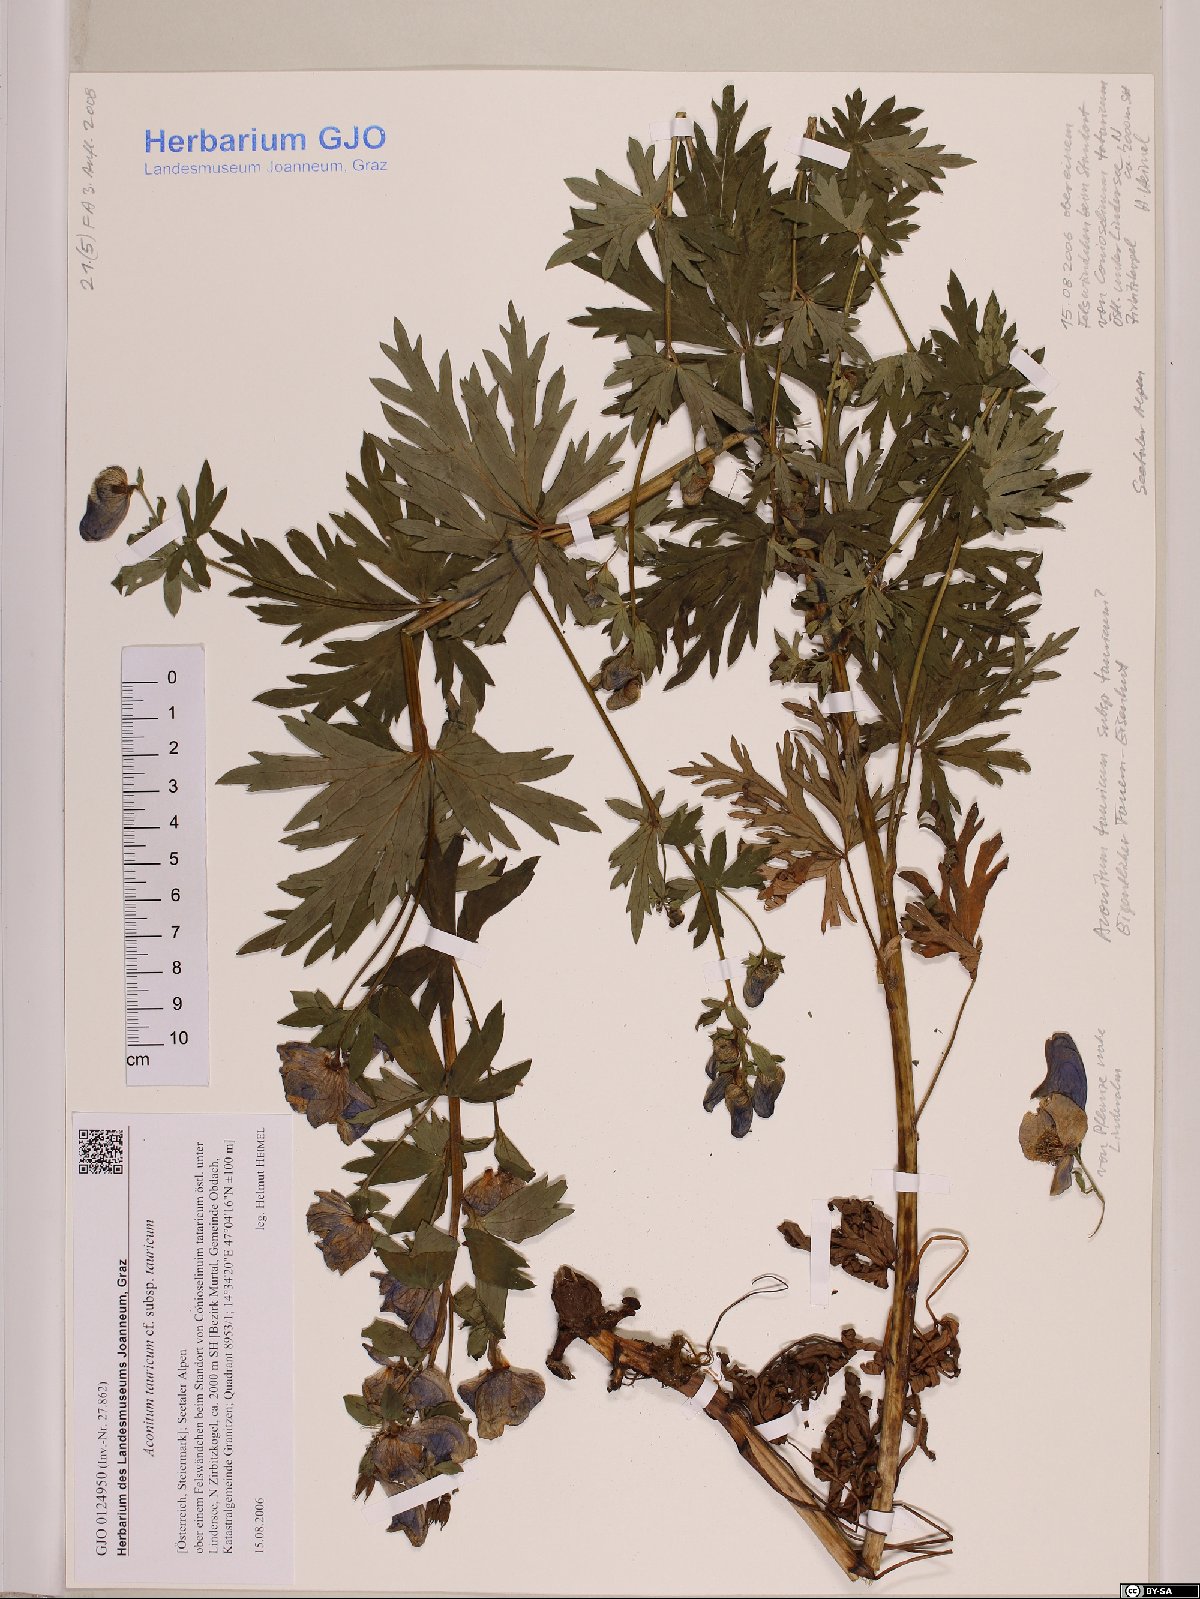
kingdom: Plantae
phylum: Tracheophyta
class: Magnoliopsida
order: Ranunculales
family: Ranunculaceae
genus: Aconitum
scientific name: Aconitum tauricum
